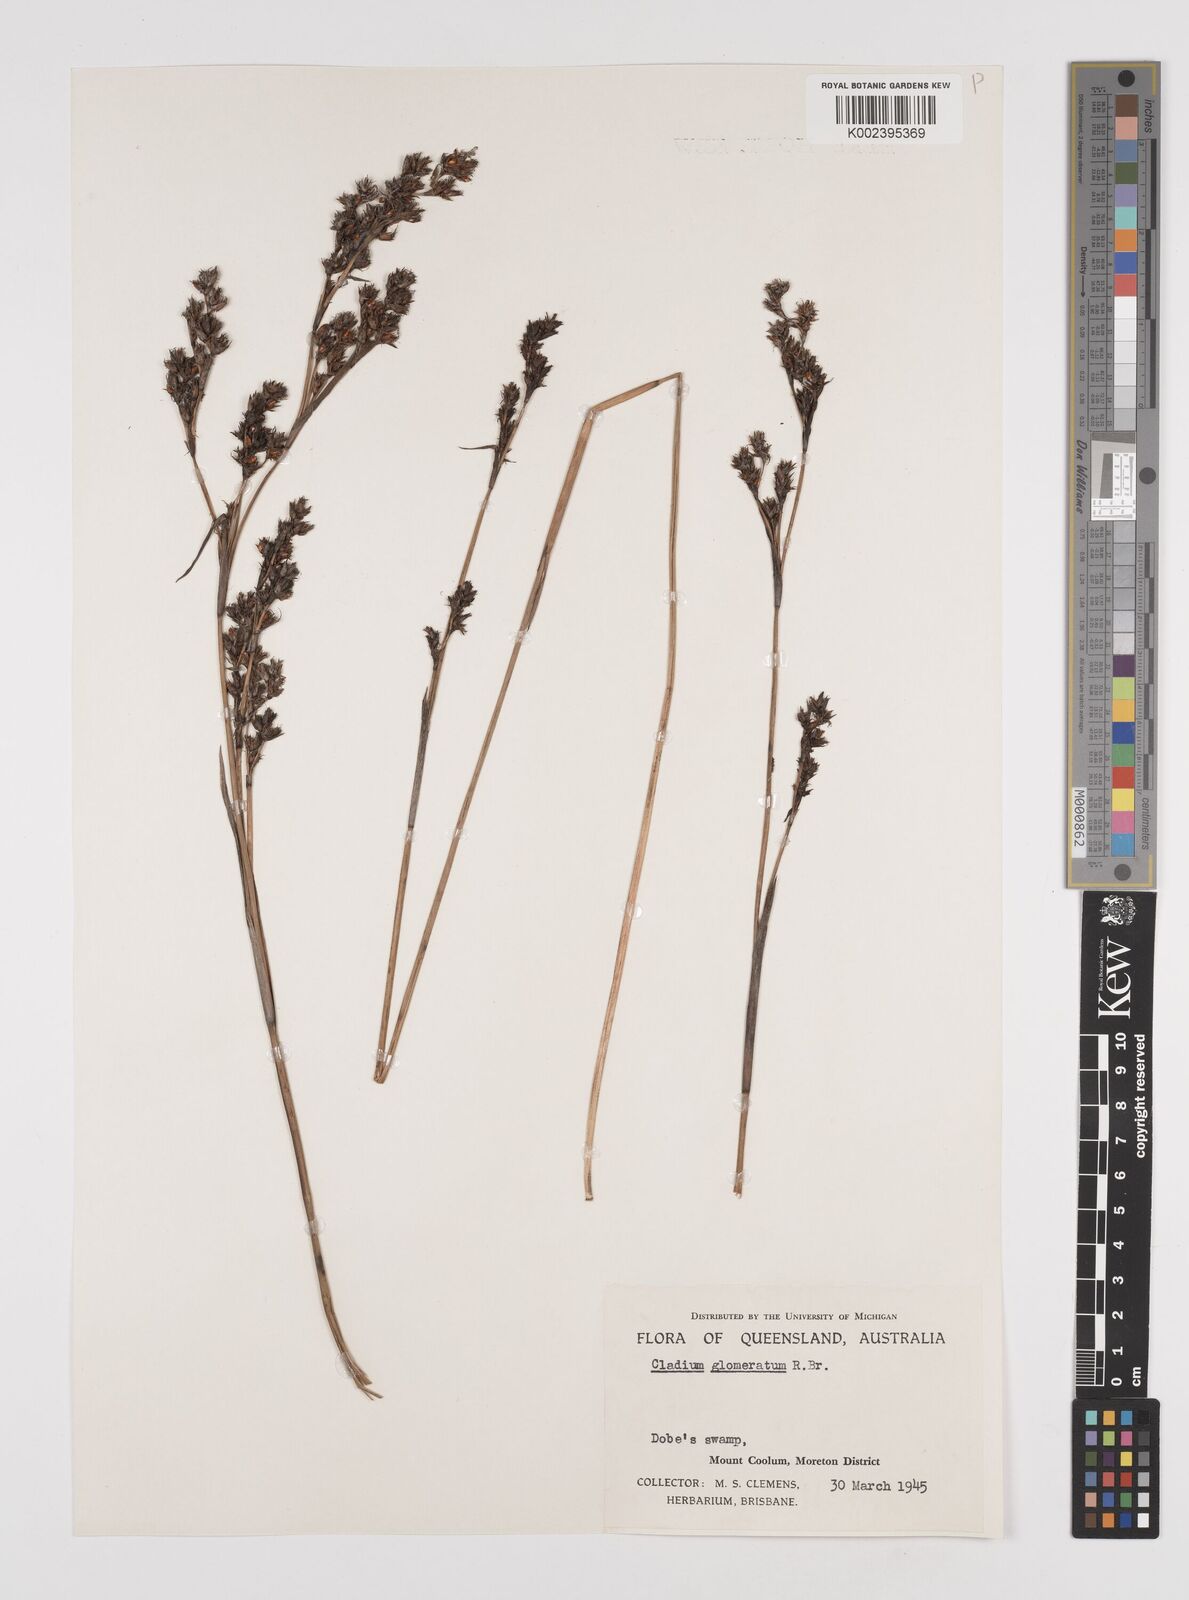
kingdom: Plantae
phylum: Tracheophyta
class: Liliopsida
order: Poales
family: Cyperaceae
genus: Machaerina
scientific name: Machaerina rubiginosa
